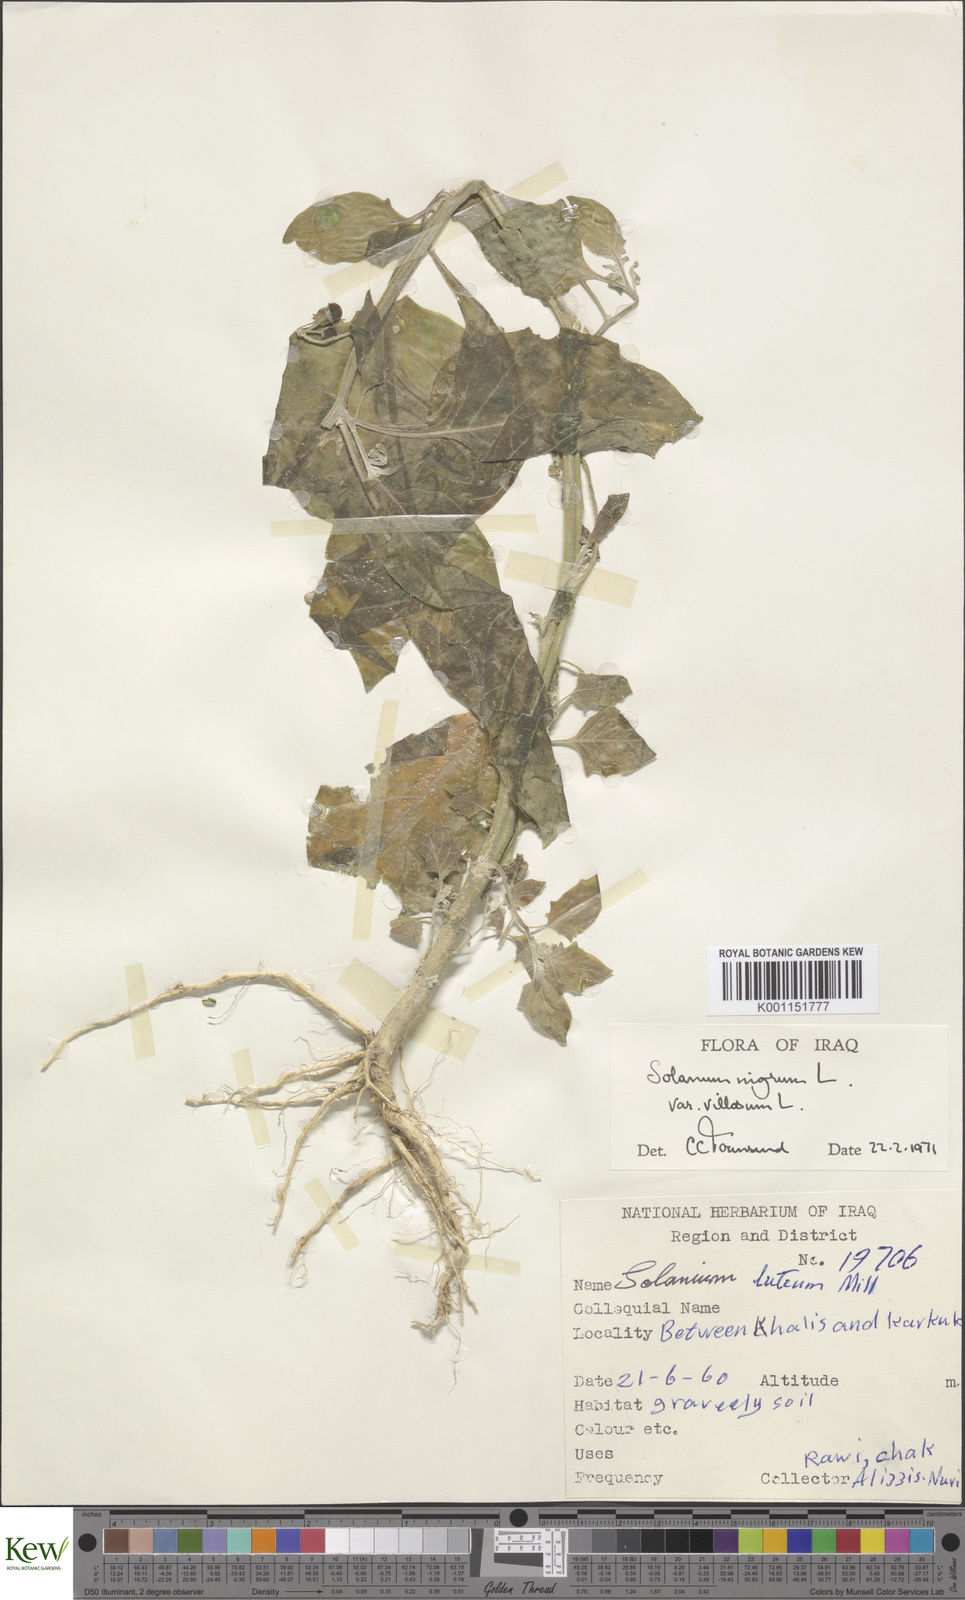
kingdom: Plantae
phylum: Tracheophyta
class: Magnoliopsida
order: Solanales
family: Solanaceae
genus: Solanum
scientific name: Solanum villosum
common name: Red nightshade
